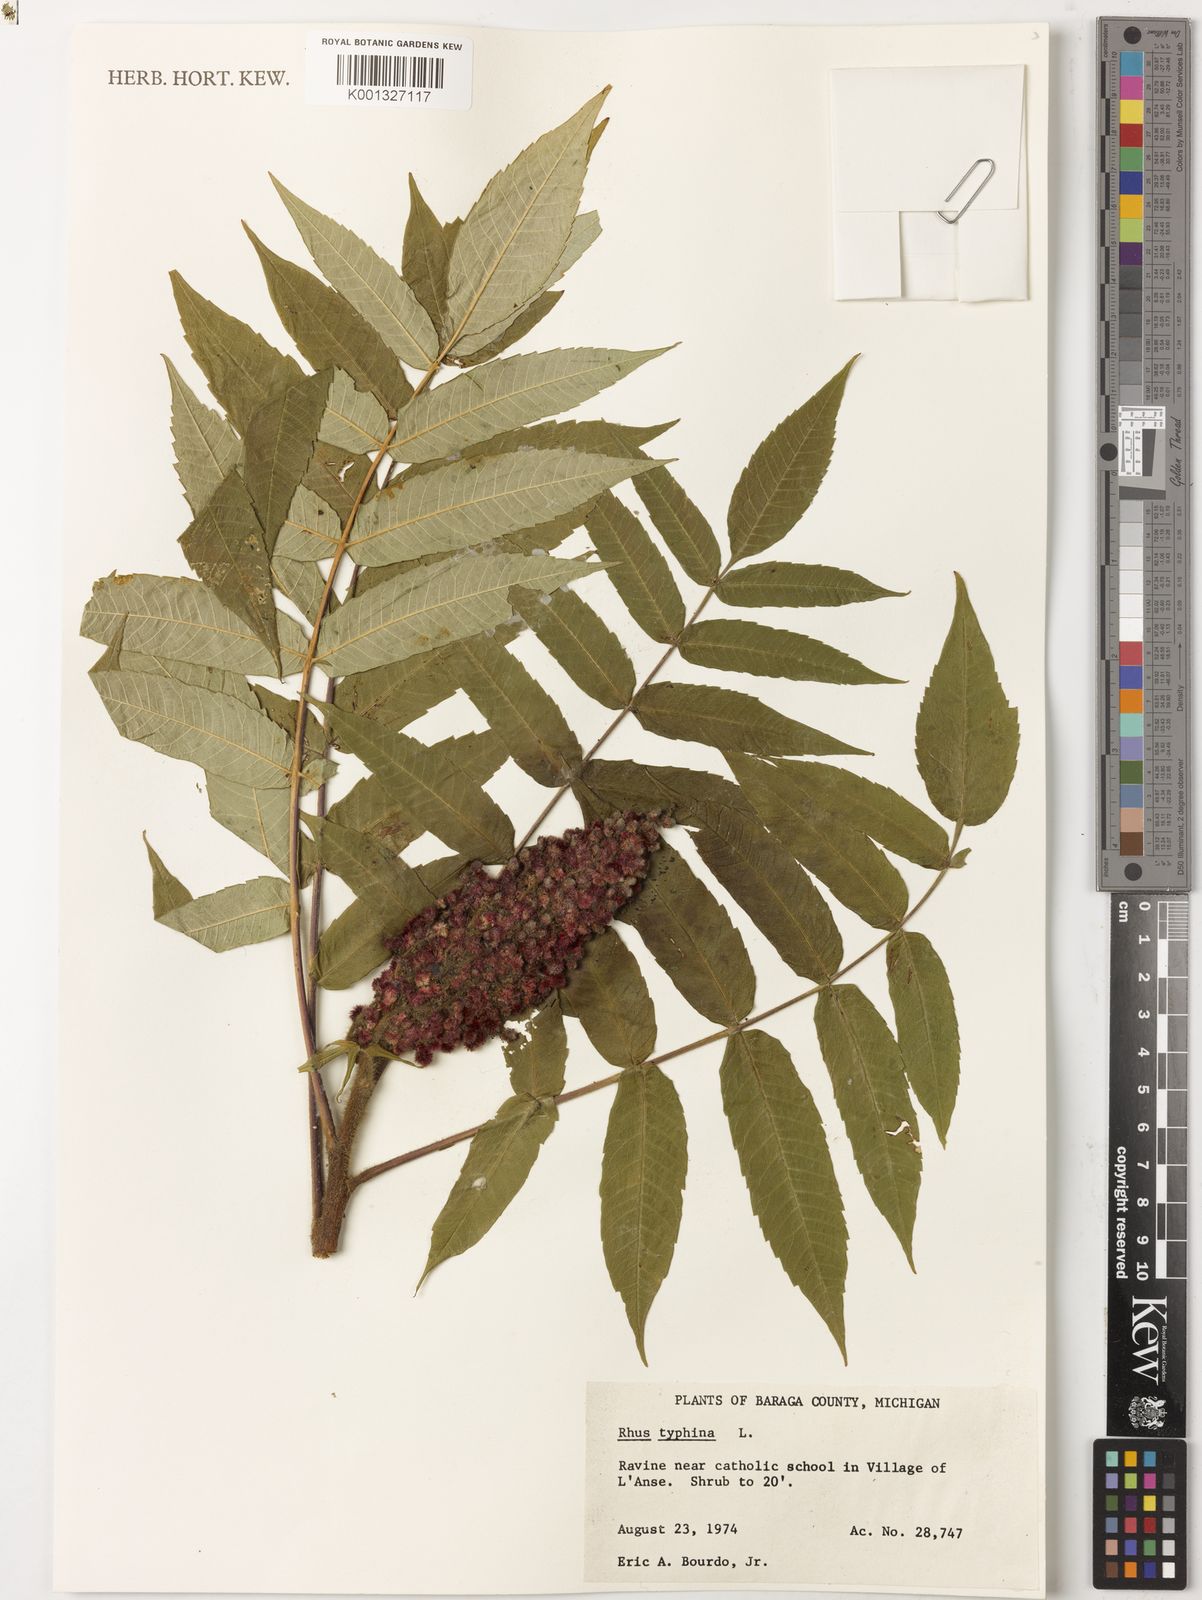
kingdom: Plantae
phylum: Tracheophyta
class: Magnoliopsida
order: Sapindales
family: Anacardiaceae
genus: Rhus
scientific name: Rhus typhina
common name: Staghorn sumac
